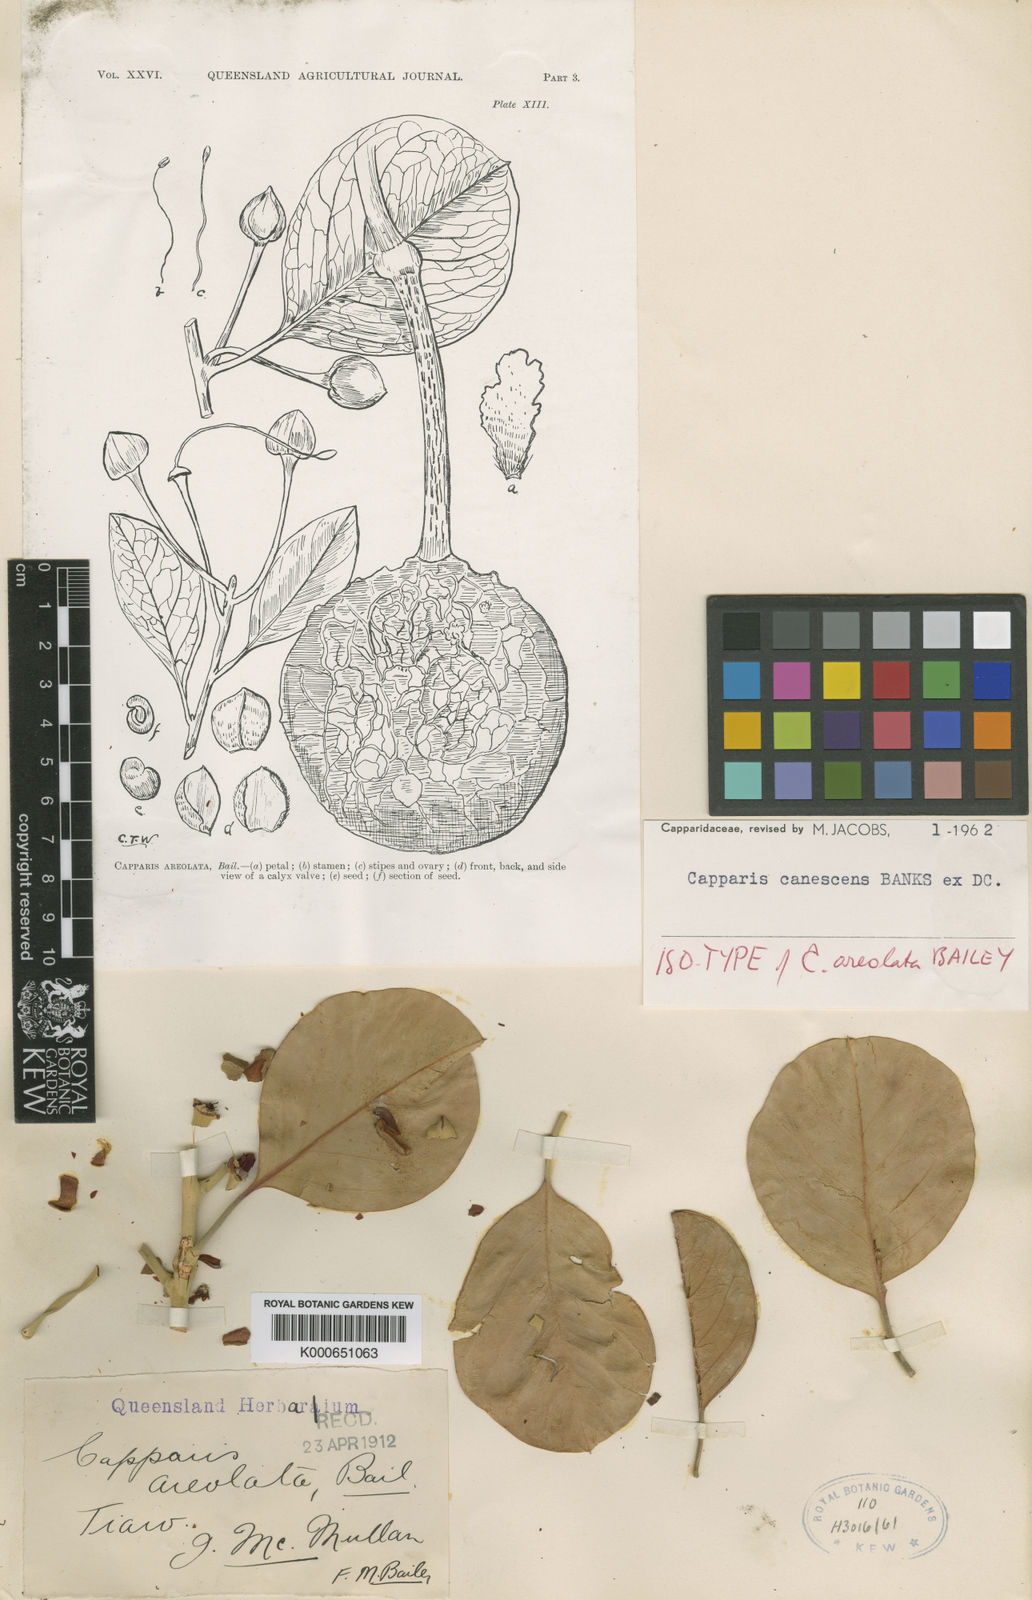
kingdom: Plantae
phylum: Tracheophyta
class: Magnoliopsida
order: Brassicales
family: Capparaceae
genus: Capparis
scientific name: Capparis canescens
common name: Native caper
